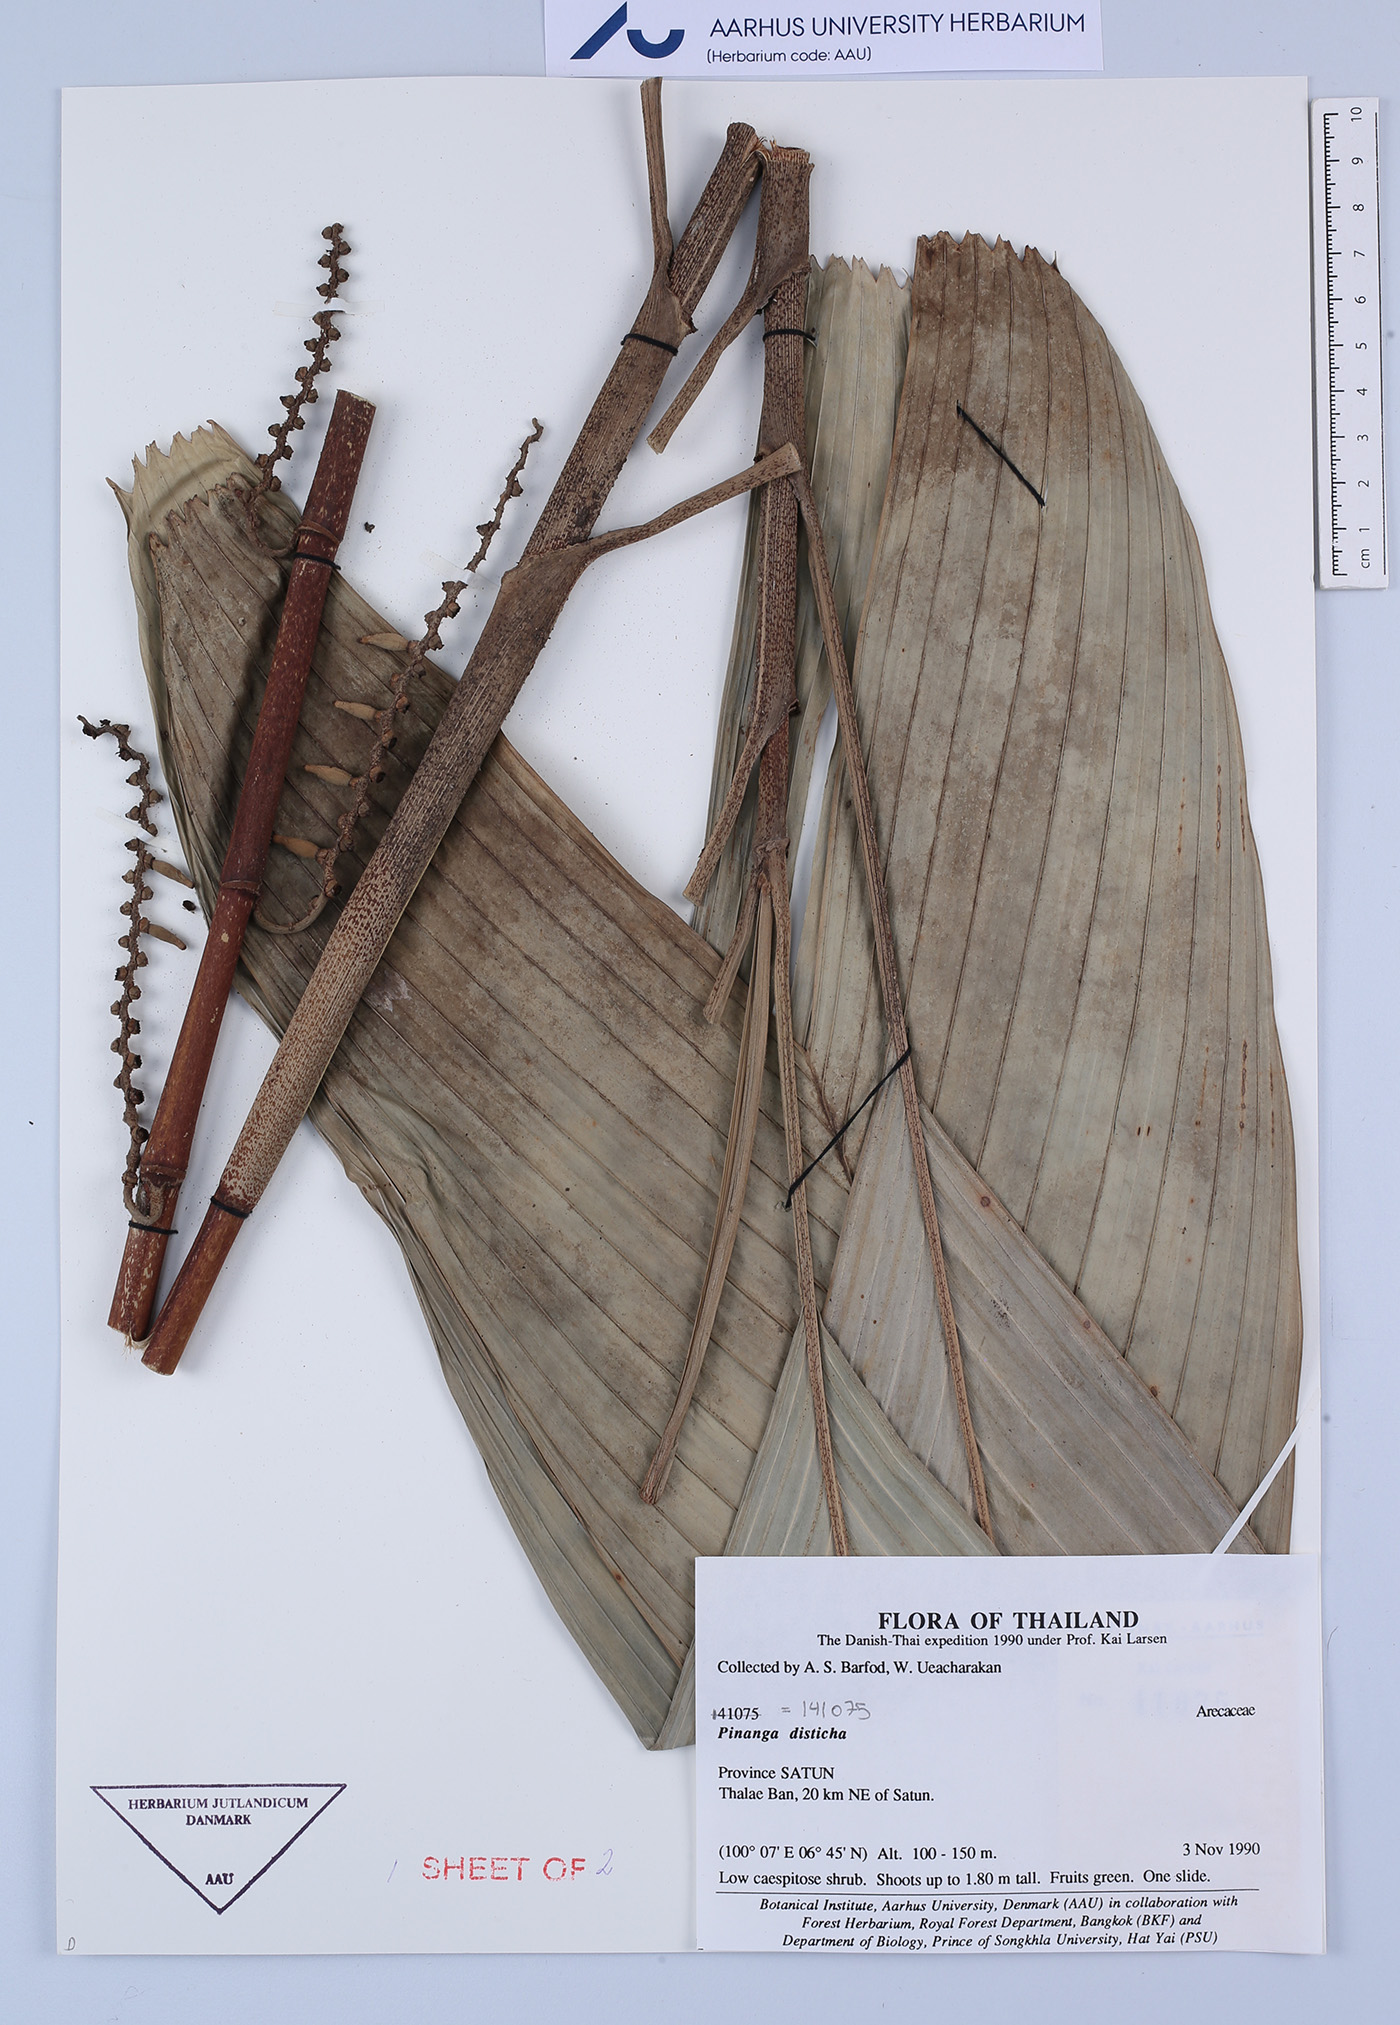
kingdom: Plantae
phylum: Tracheophyta
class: Liliopsida
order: Arecales
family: Arecaceae
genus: Pinanga
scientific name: Pinanga disticha
